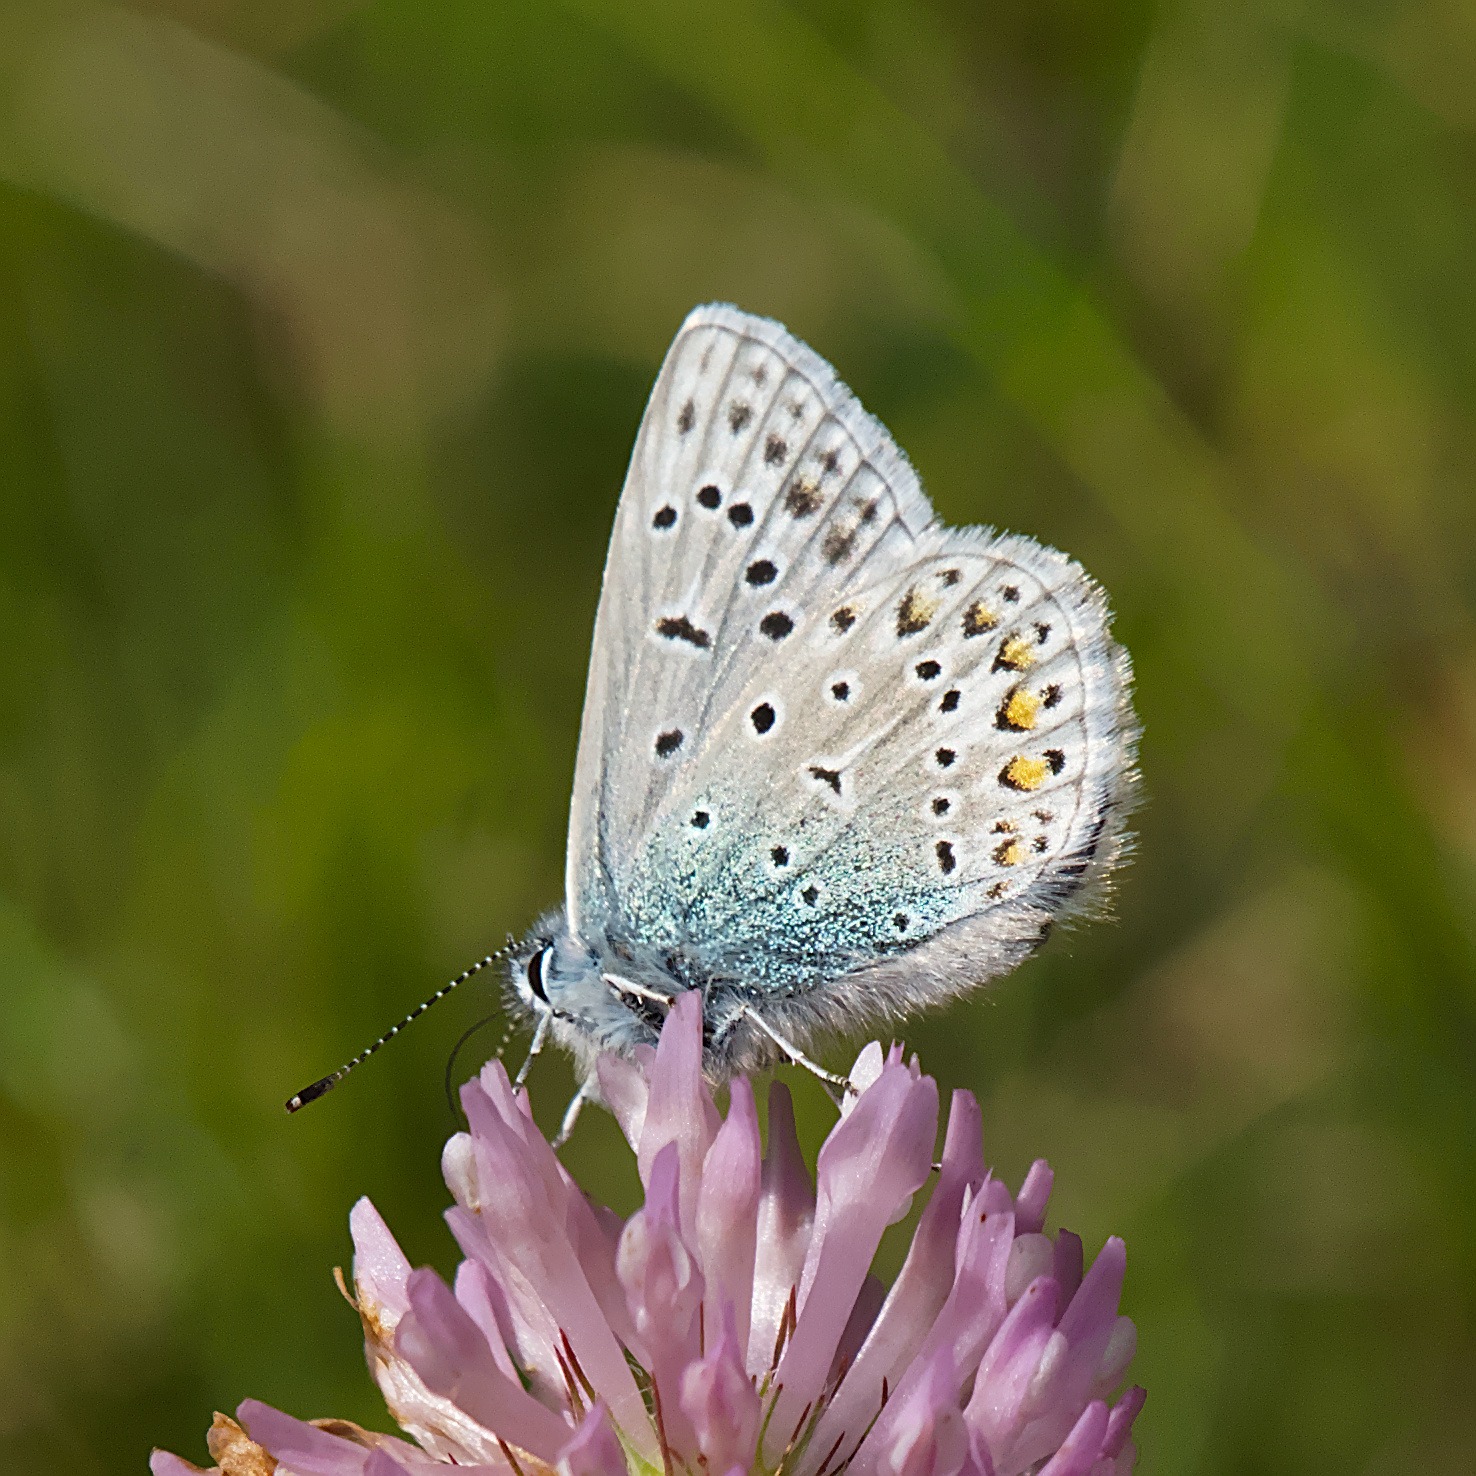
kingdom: Animalia
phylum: Arthropoda
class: Insecta
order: Lepidoptera
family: Lycaenidae
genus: Polyommatus
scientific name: Polyommatus icarus
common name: Almindelig blåfugl
